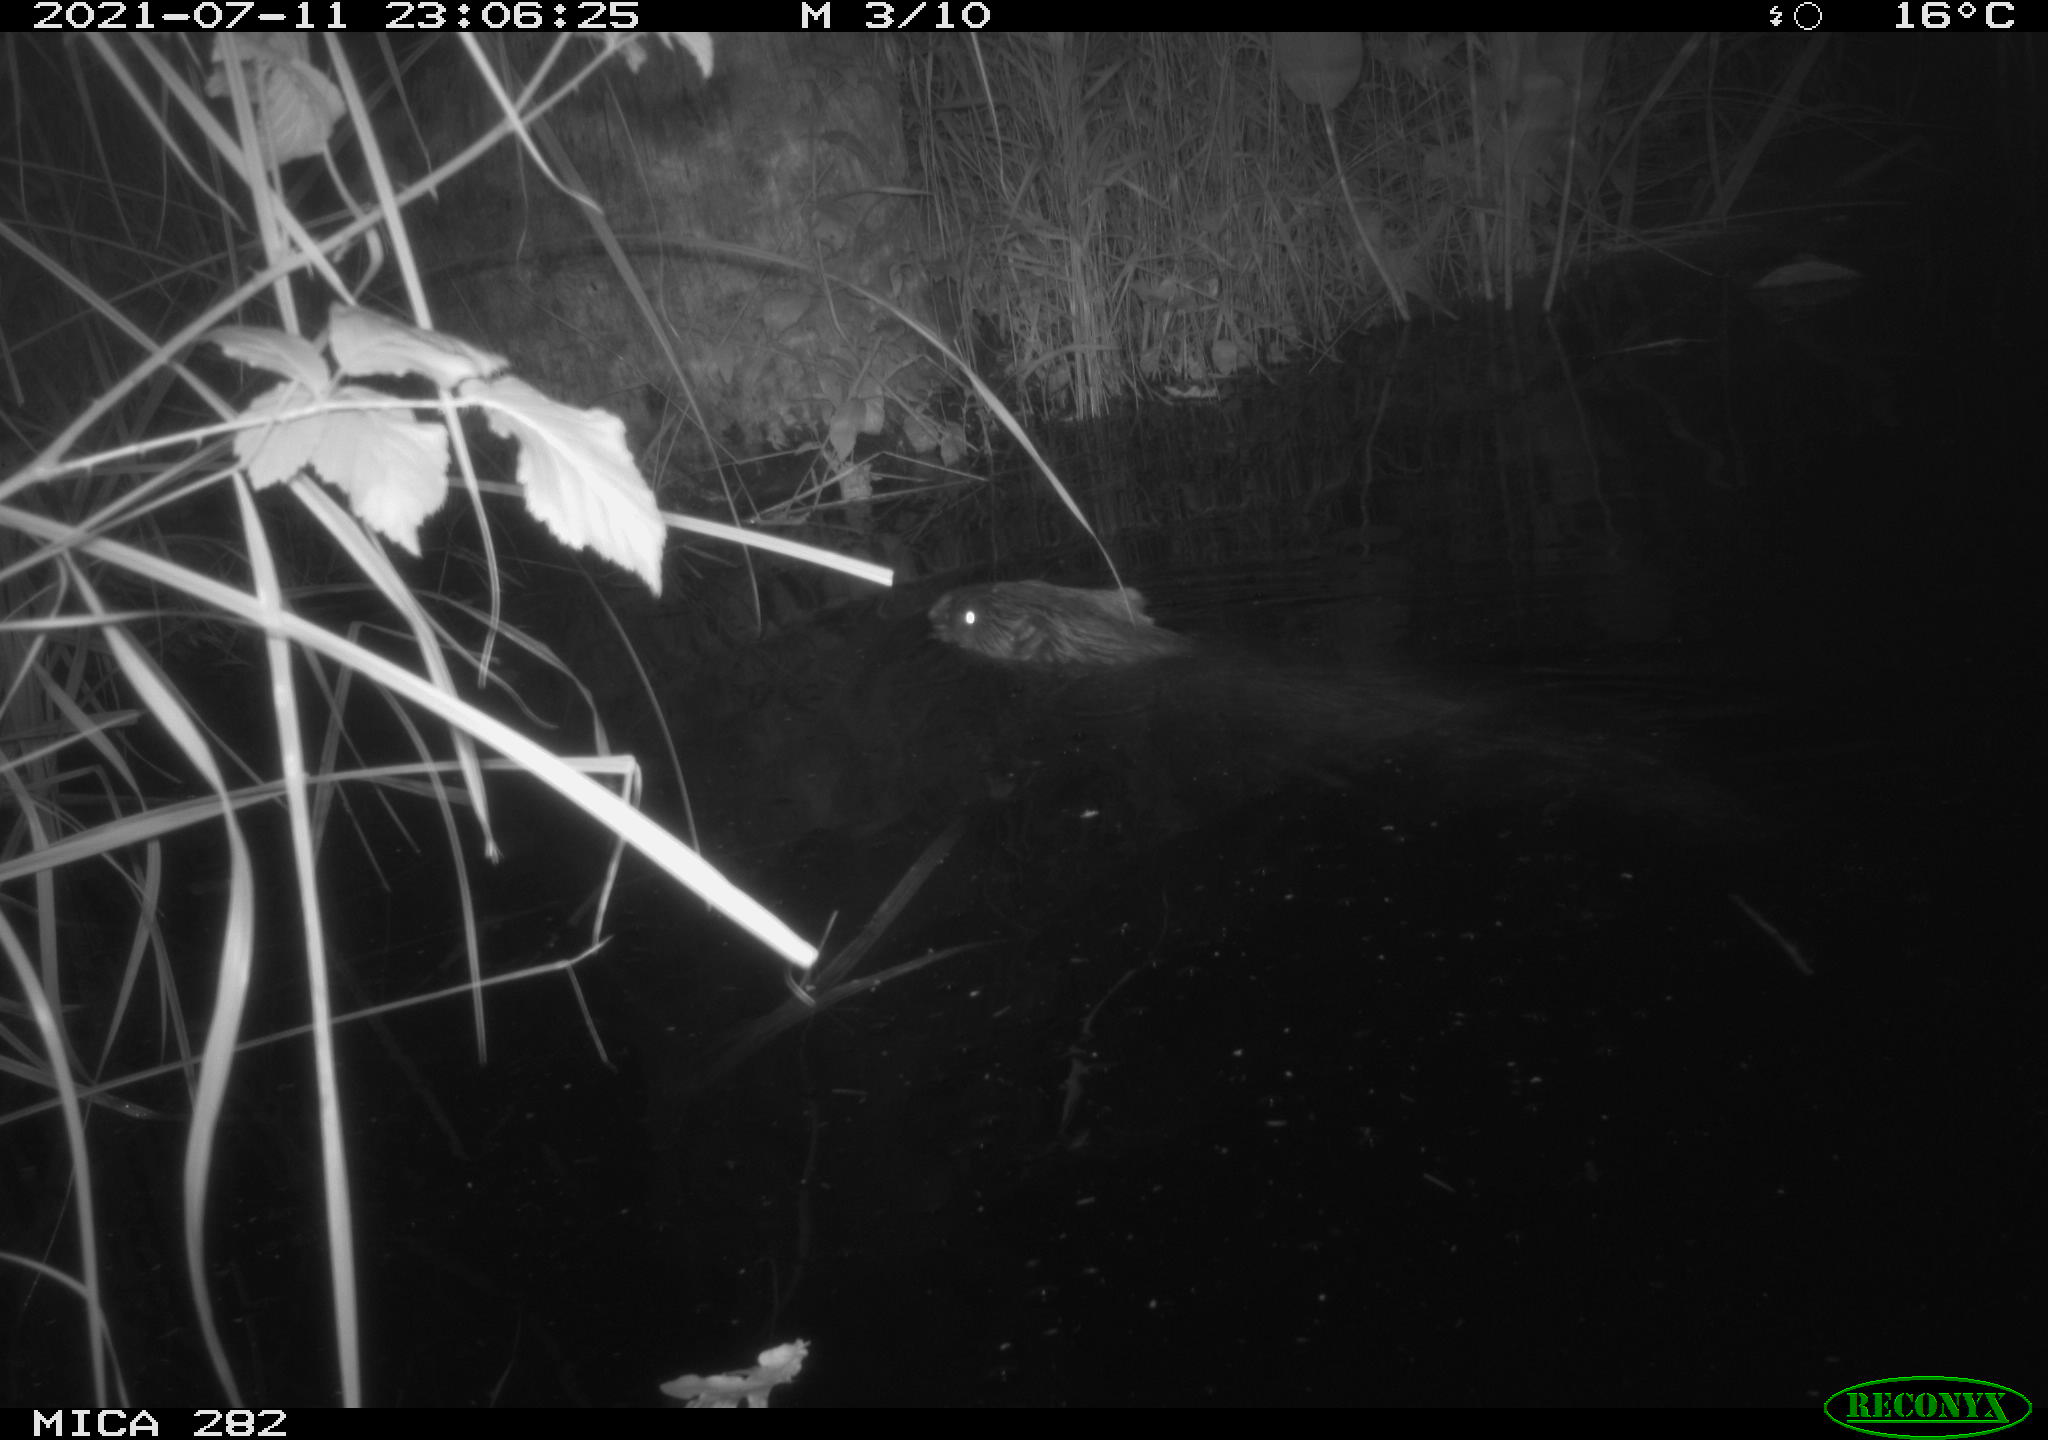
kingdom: Animalia
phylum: Chordata
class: Mammalia
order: Rodentia
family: Castoridae
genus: Castor
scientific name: Castor fiber
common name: Eurasian beaver
